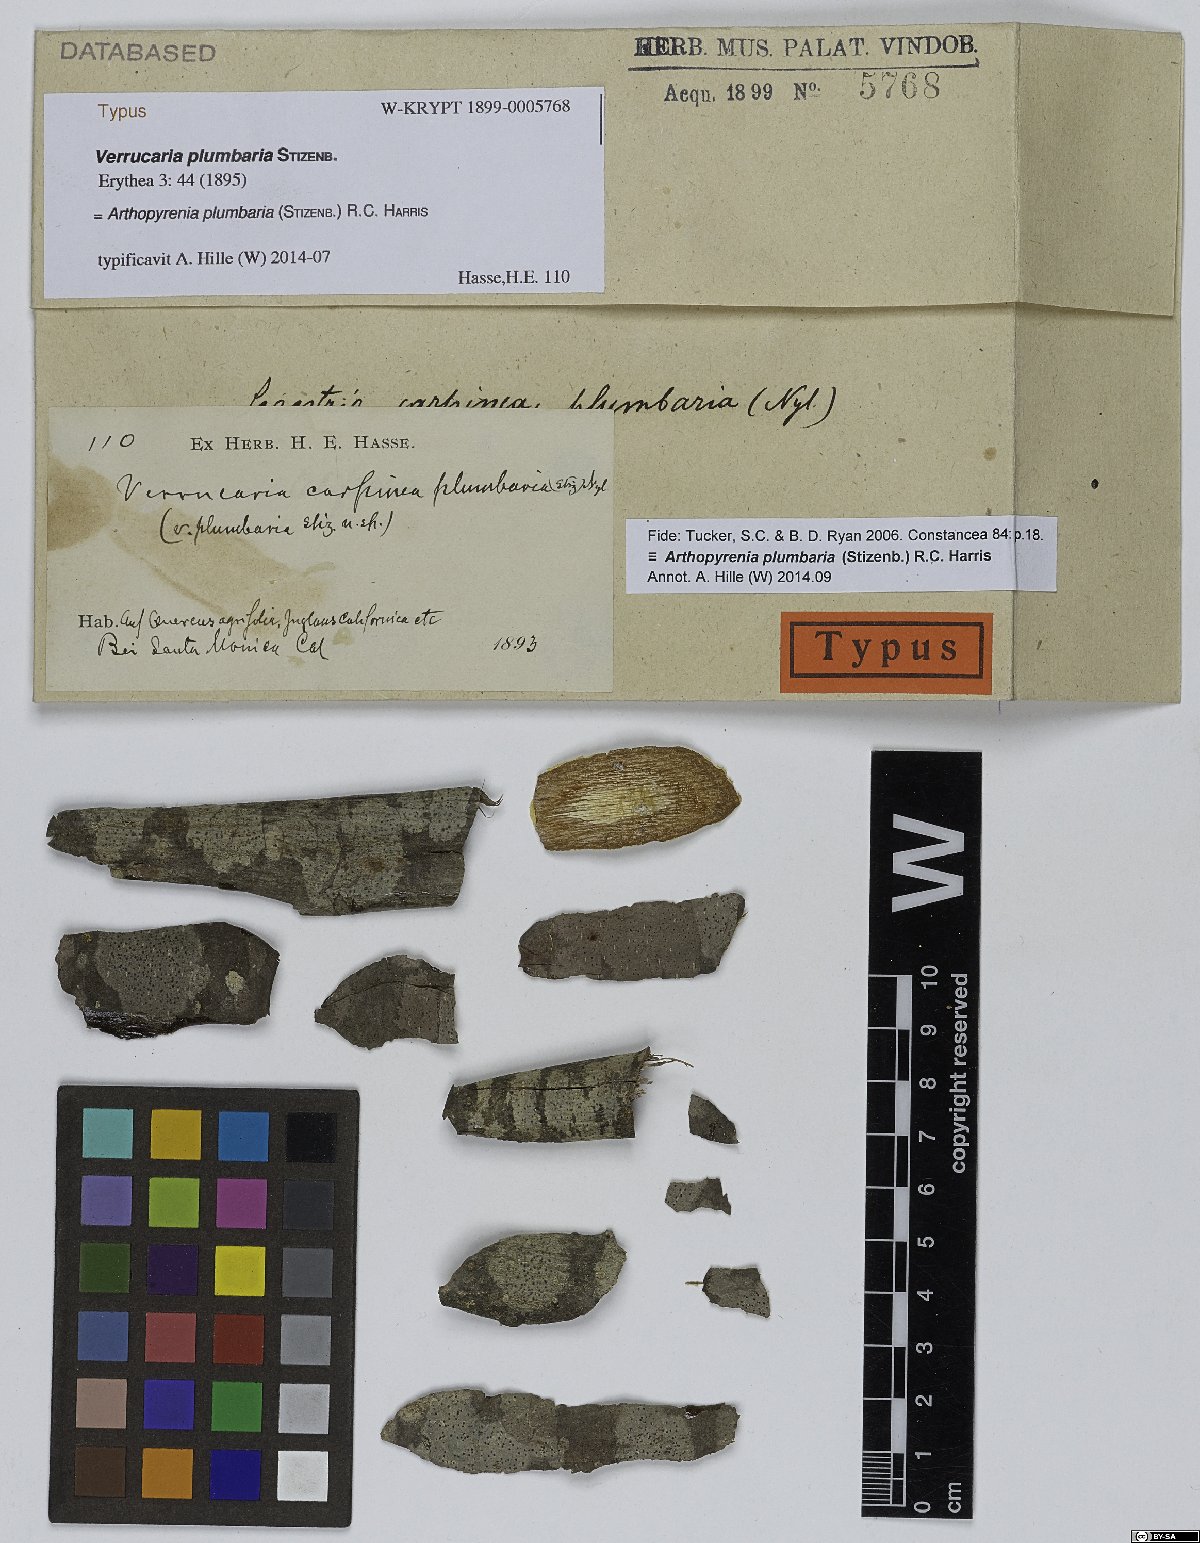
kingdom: Fungi
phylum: Ascomycota
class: Dothideomycetes
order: Trypetheliales
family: Trypetheliaceae
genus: Arthopyrenia
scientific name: Arthopyrenia plumbaria
